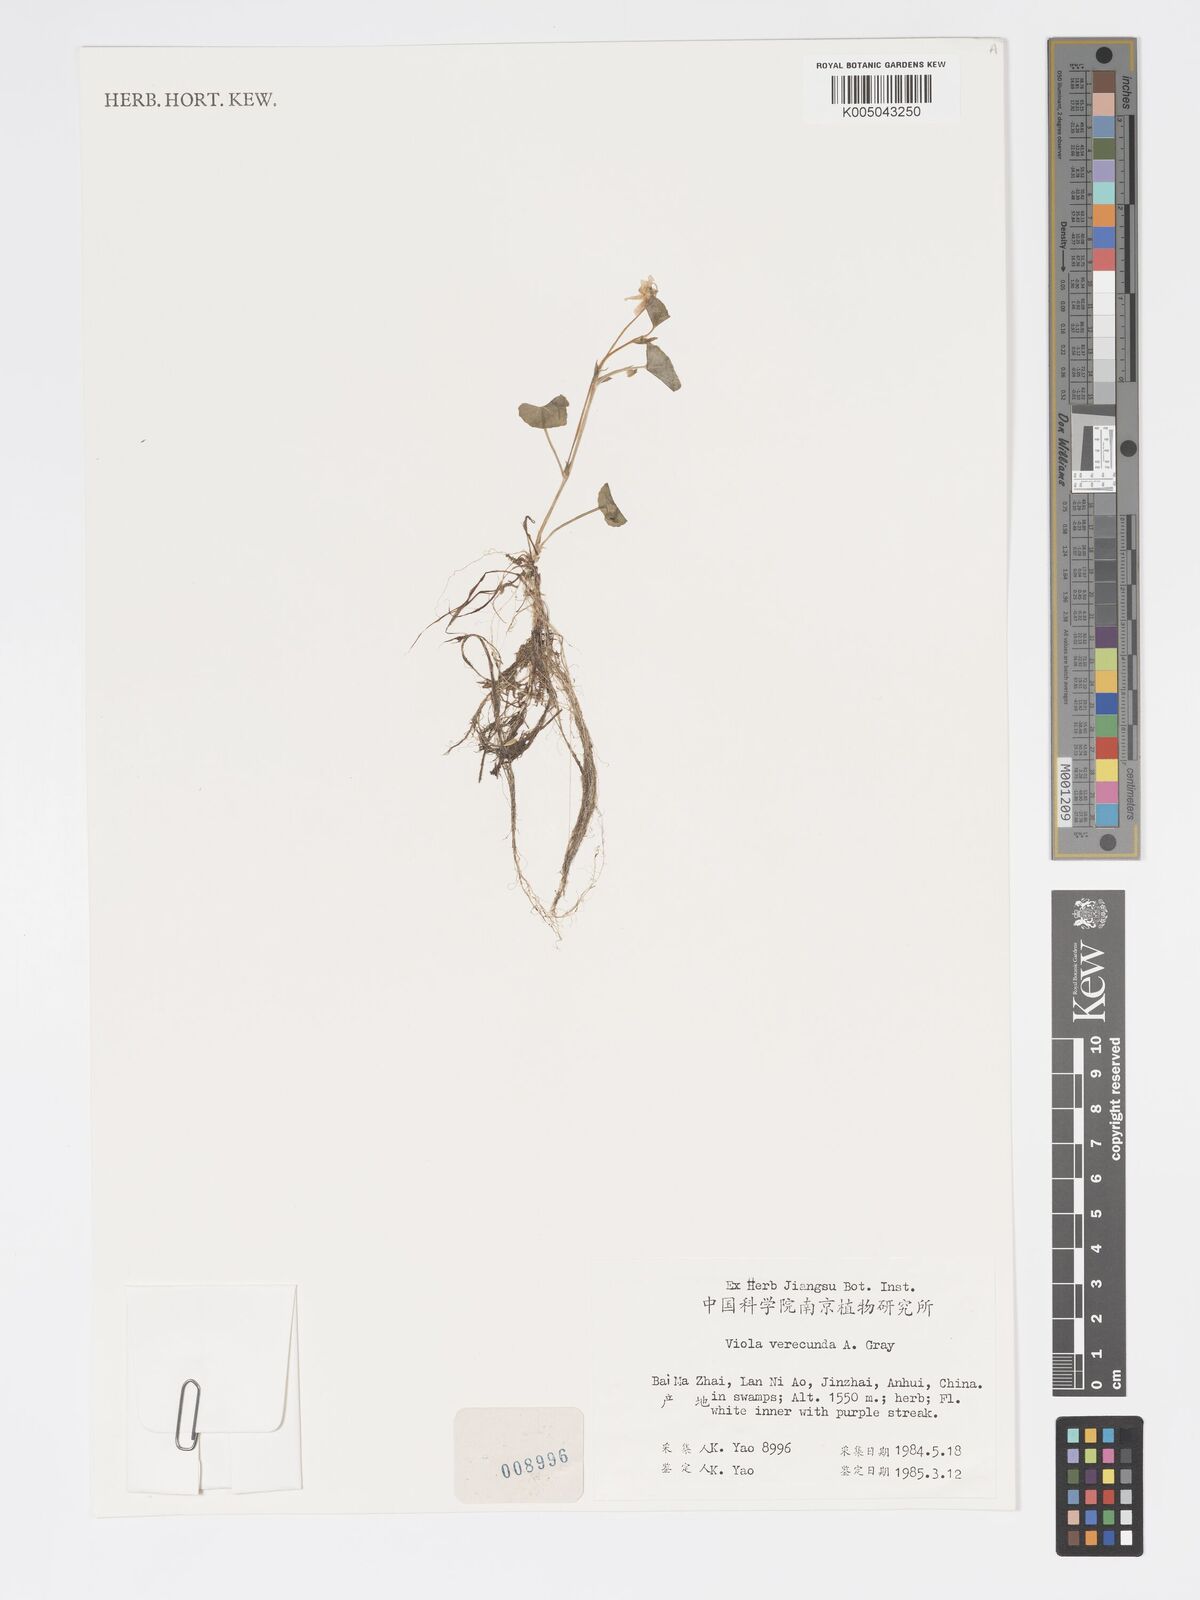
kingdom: Plantae
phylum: Tracheophyta
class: Magnoliopsida
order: Malpighiales
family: Violaceae
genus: Viola
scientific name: Viola hamiltoniana
